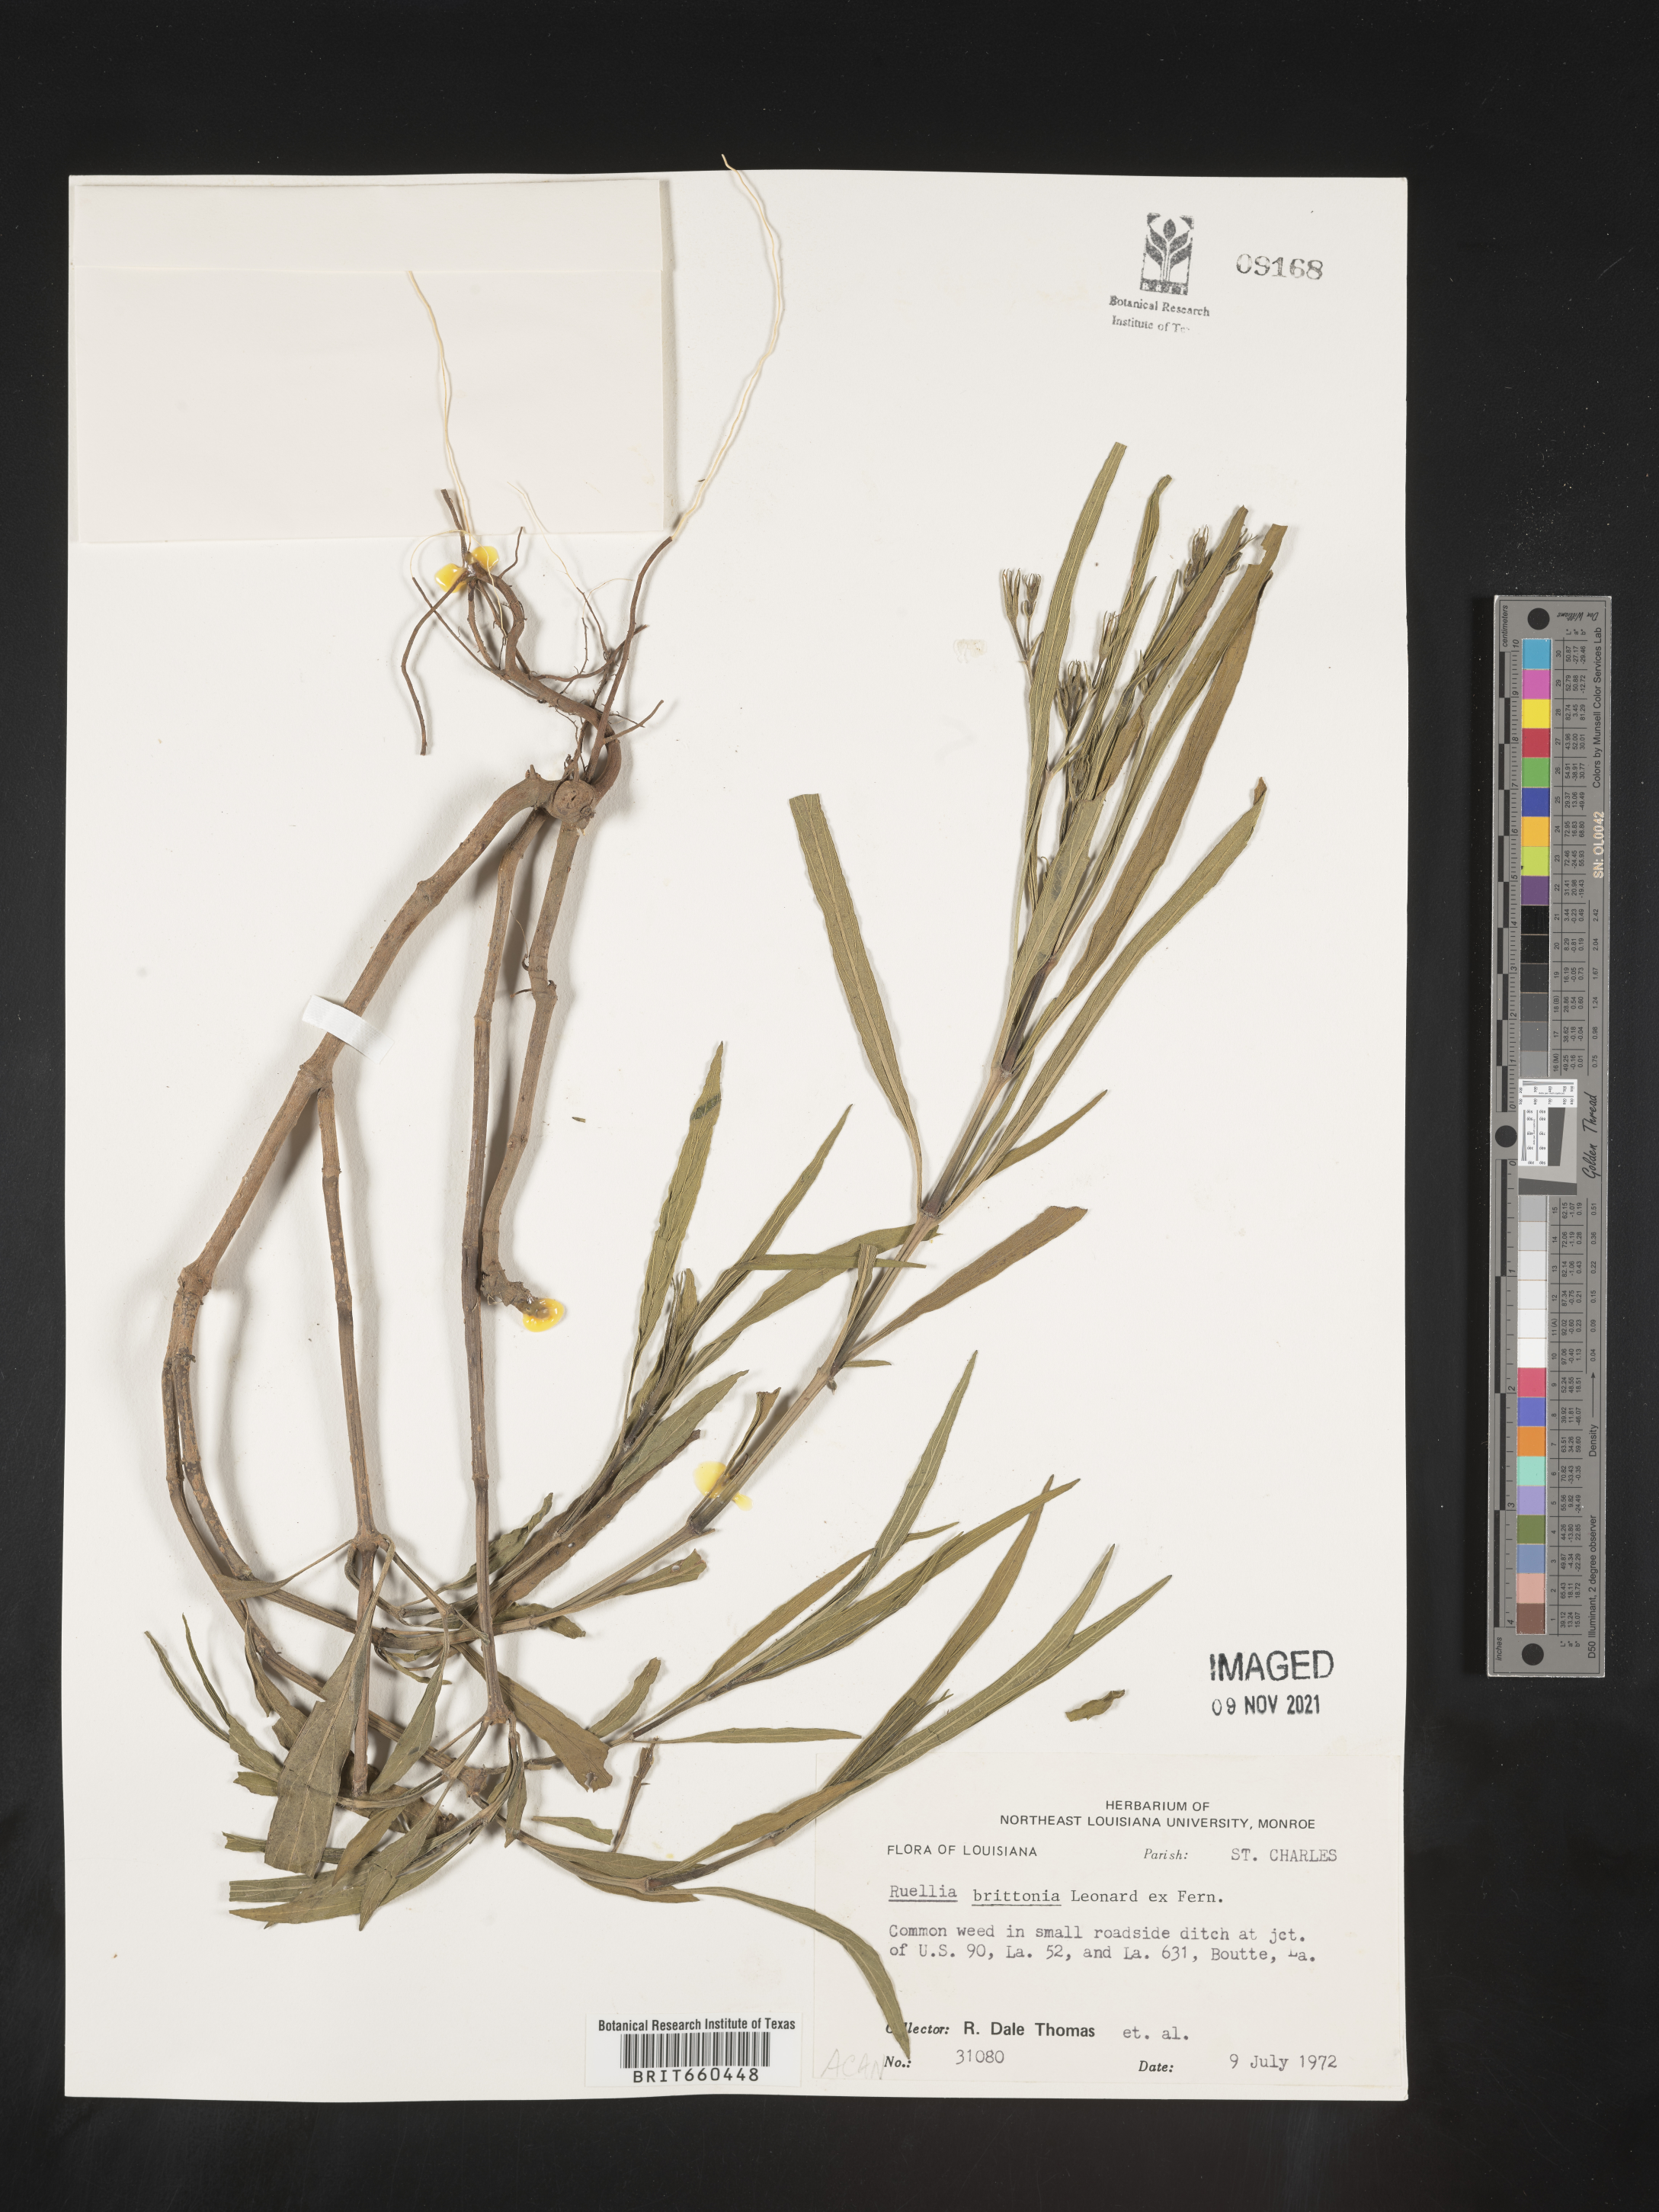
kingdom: Plantae
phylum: Tracheophyta
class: Magnoliopsida
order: Lamiales
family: Acanthaceae
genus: Ruellia
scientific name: Ruellia simplex
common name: Softseed wild petunia
